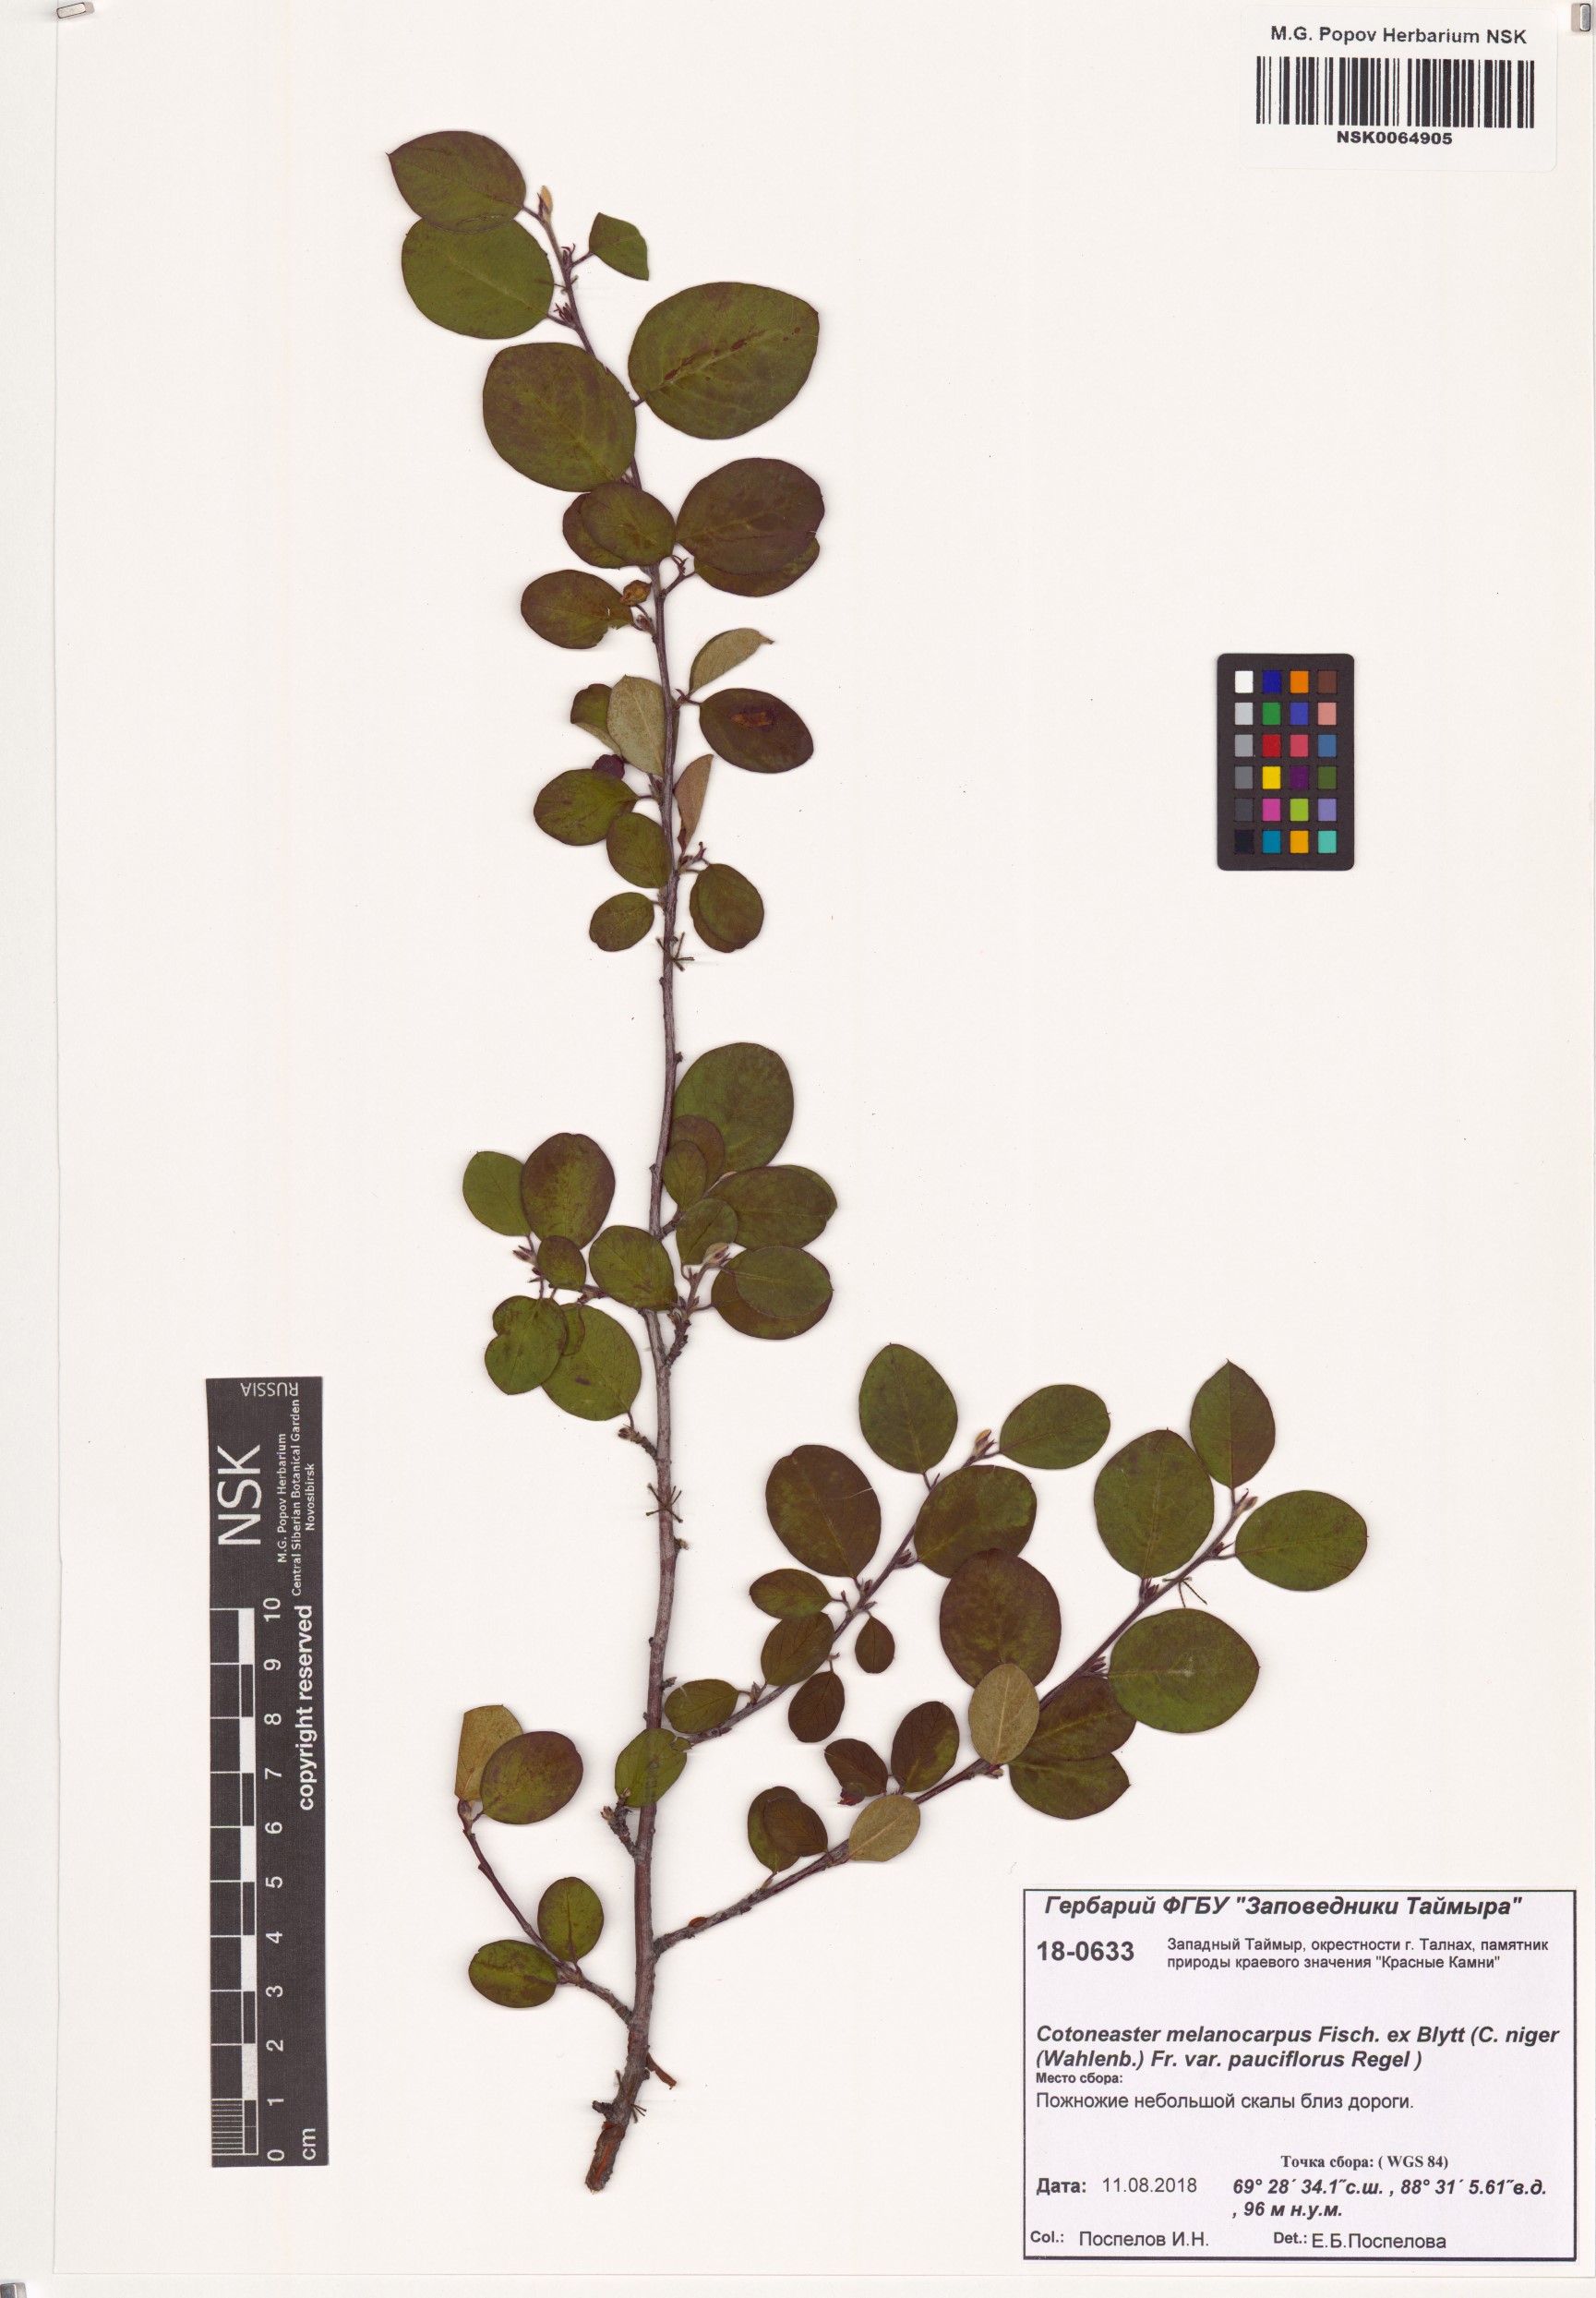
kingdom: Plantae
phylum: Tracheophyta
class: Magnoliopsida
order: Rosales
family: Rosaceae
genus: Cotoneaster
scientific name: Cotoneaster melanocarpus
